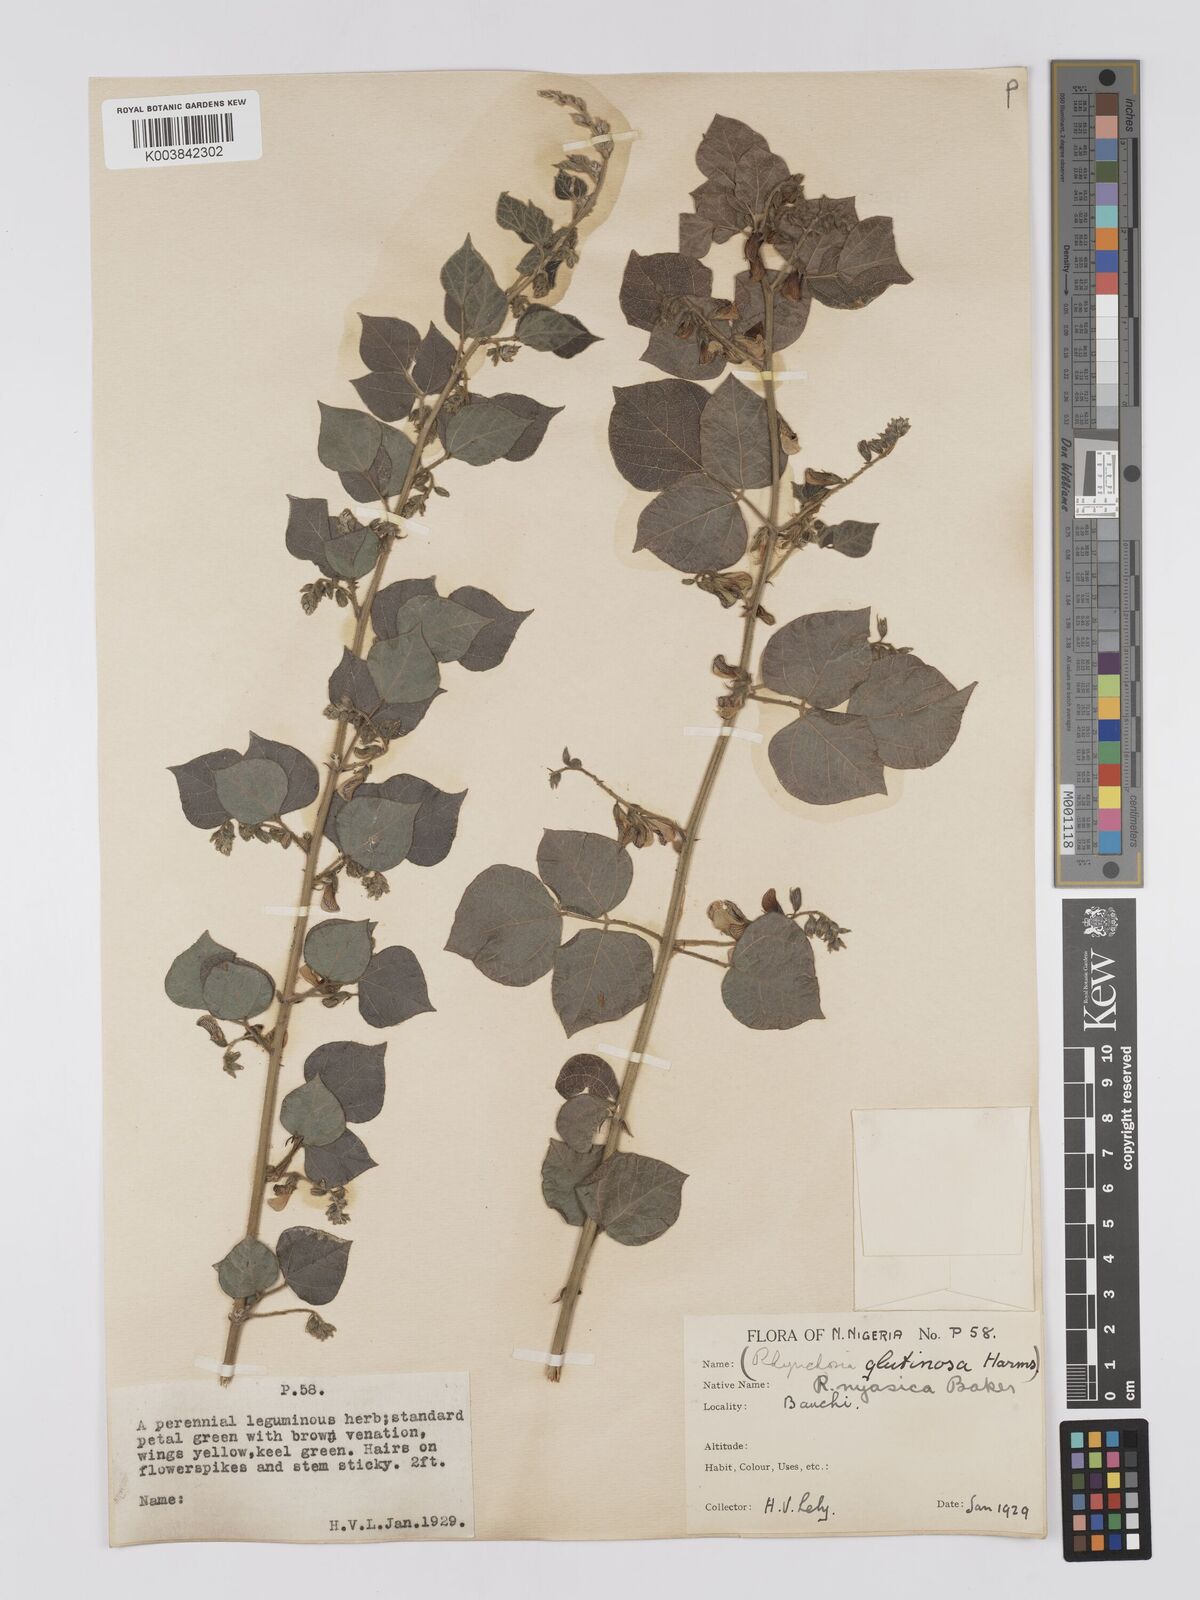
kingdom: Plantae
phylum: Tracheophyta
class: Magnoliopsida
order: Fabales
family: Fabaceae
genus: Rhynchosia
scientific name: Rhynchosia nyasica
